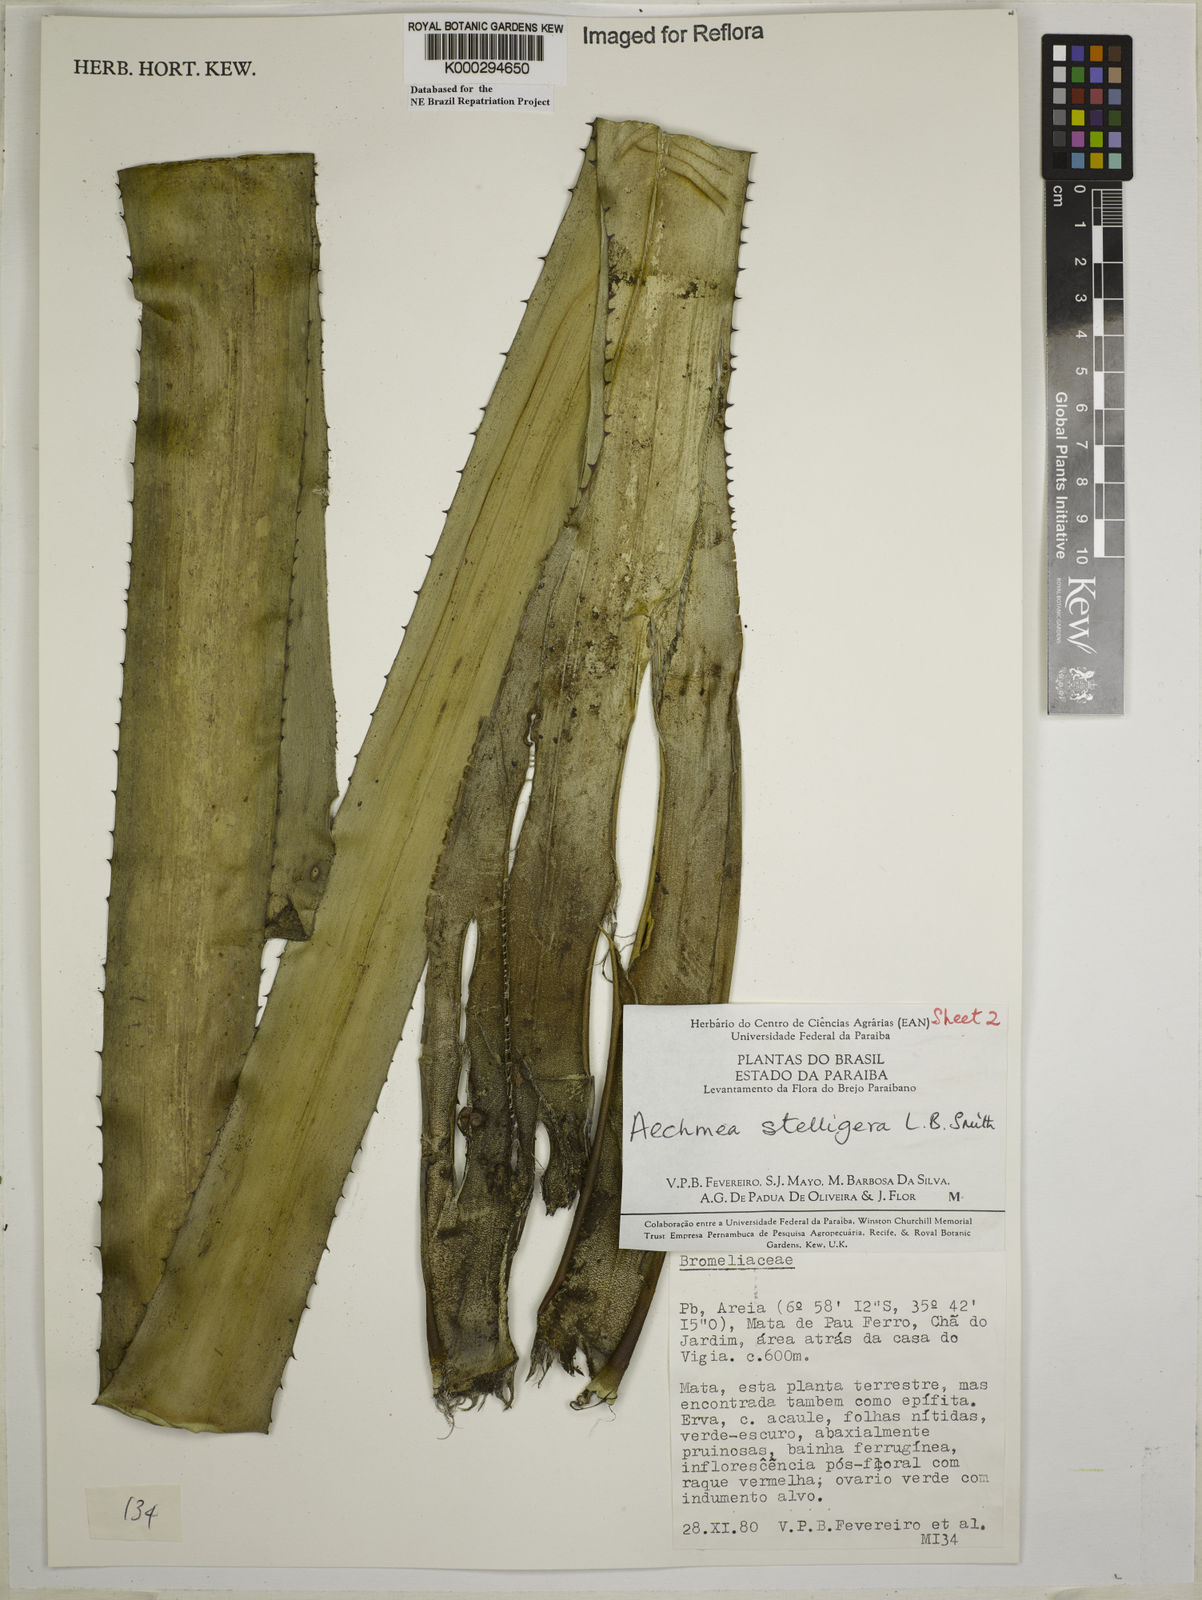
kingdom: Plantae
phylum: Tracheophyta
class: Liliopsida
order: Poales
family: Bromeliaceae
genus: Aechmea
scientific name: Aechmea stelligera
